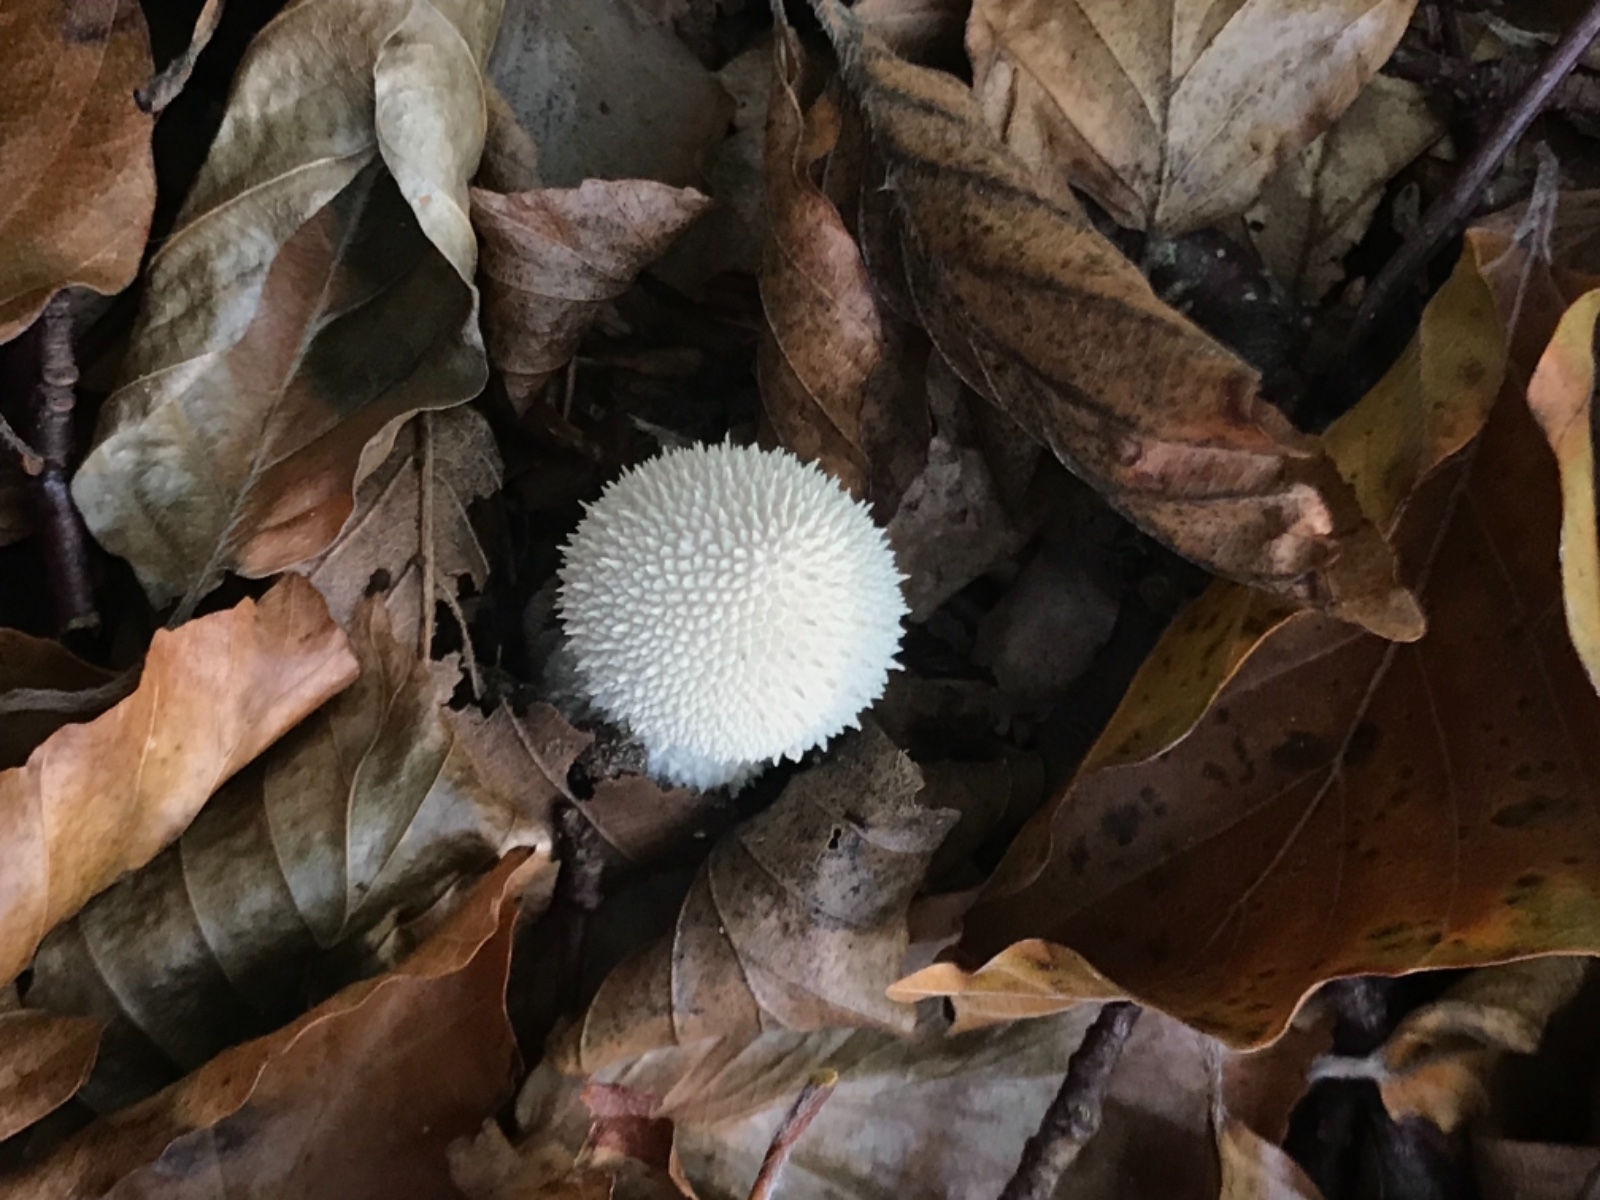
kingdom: Fungi
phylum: Basidiomycota
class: Agaricomycetes
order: Agaricales
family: Lycoperdaceae
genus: Lycoperdon
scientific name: Lycoperdon perlatum
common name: krystal-støvbold
